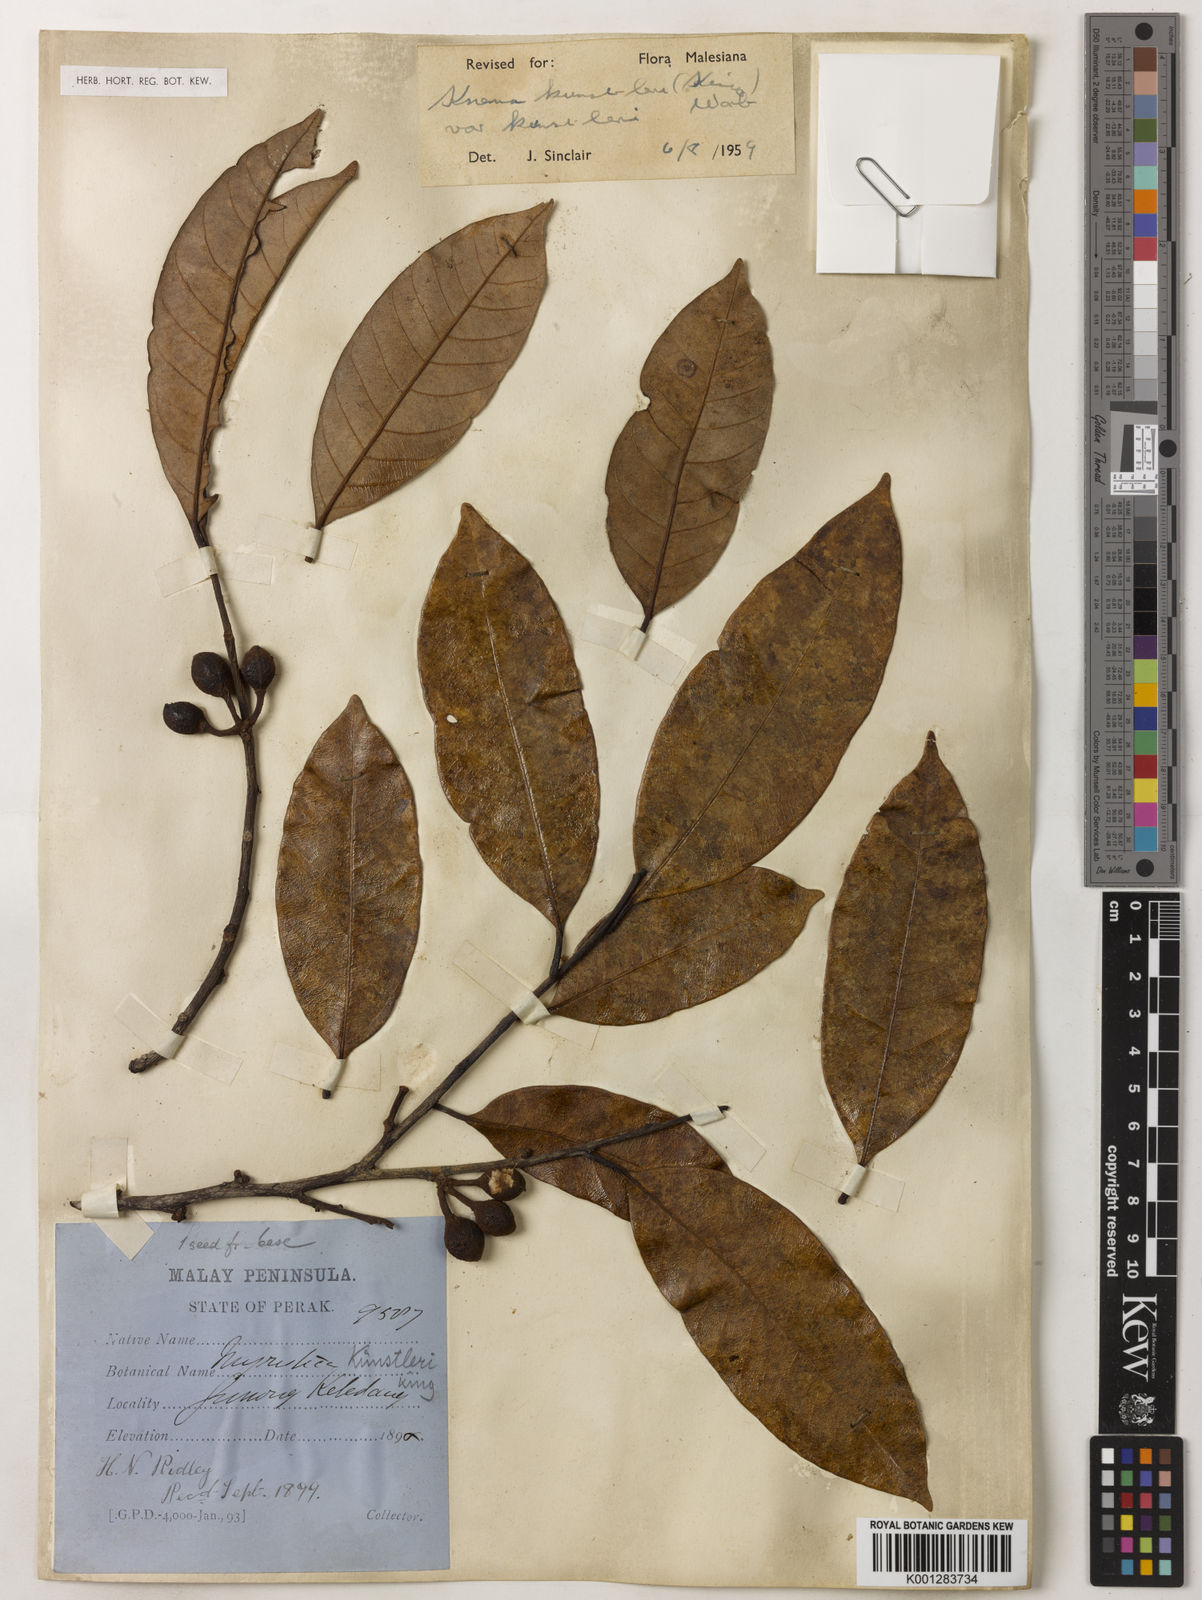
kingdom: Plantae
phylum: Tracheophyta
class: Magnoliopsida
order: Magnoliales
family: Myristicaceae
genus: Knema
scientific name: Knema kunstleri
